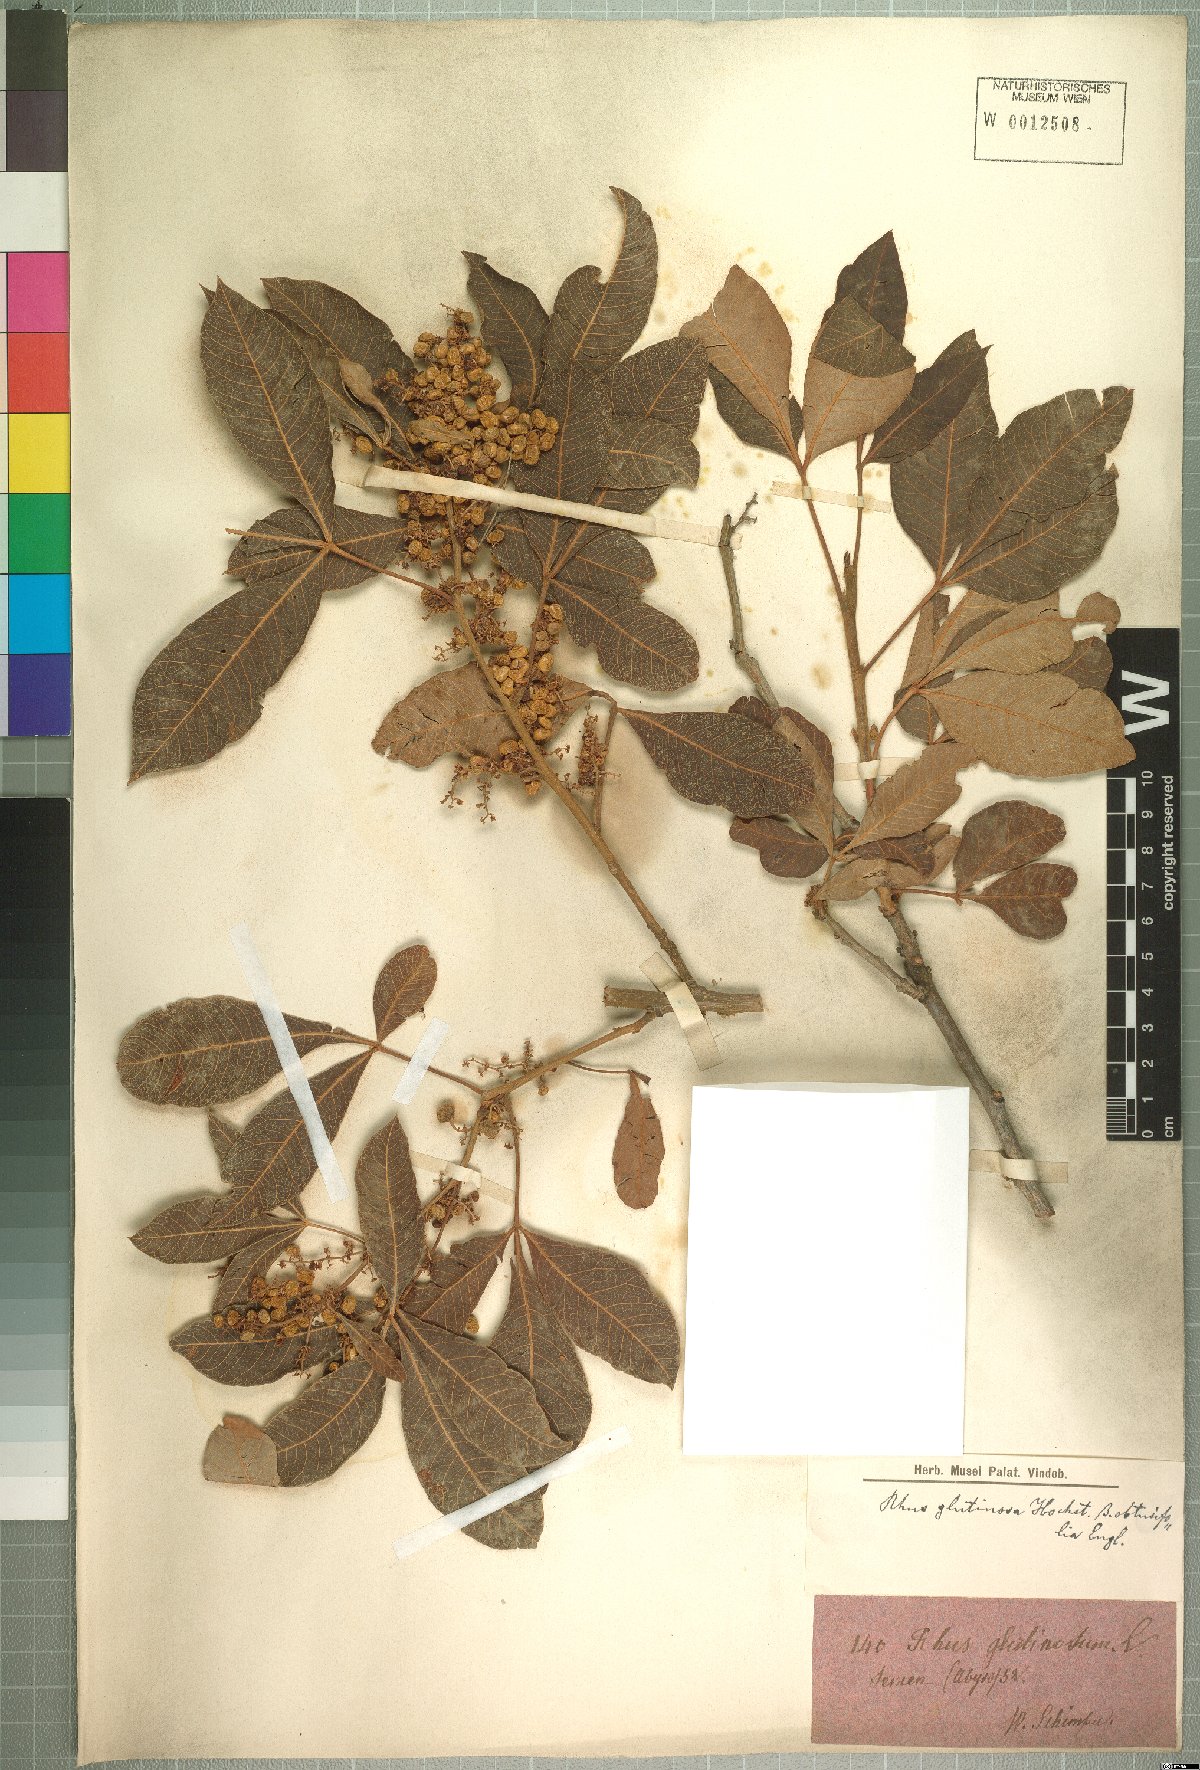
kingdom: Plantae
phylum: Tracheophyta
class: Magnoliopsida
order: Sapindales
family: Anacardiaceae
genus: Searsia
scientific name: Searsia longipes
